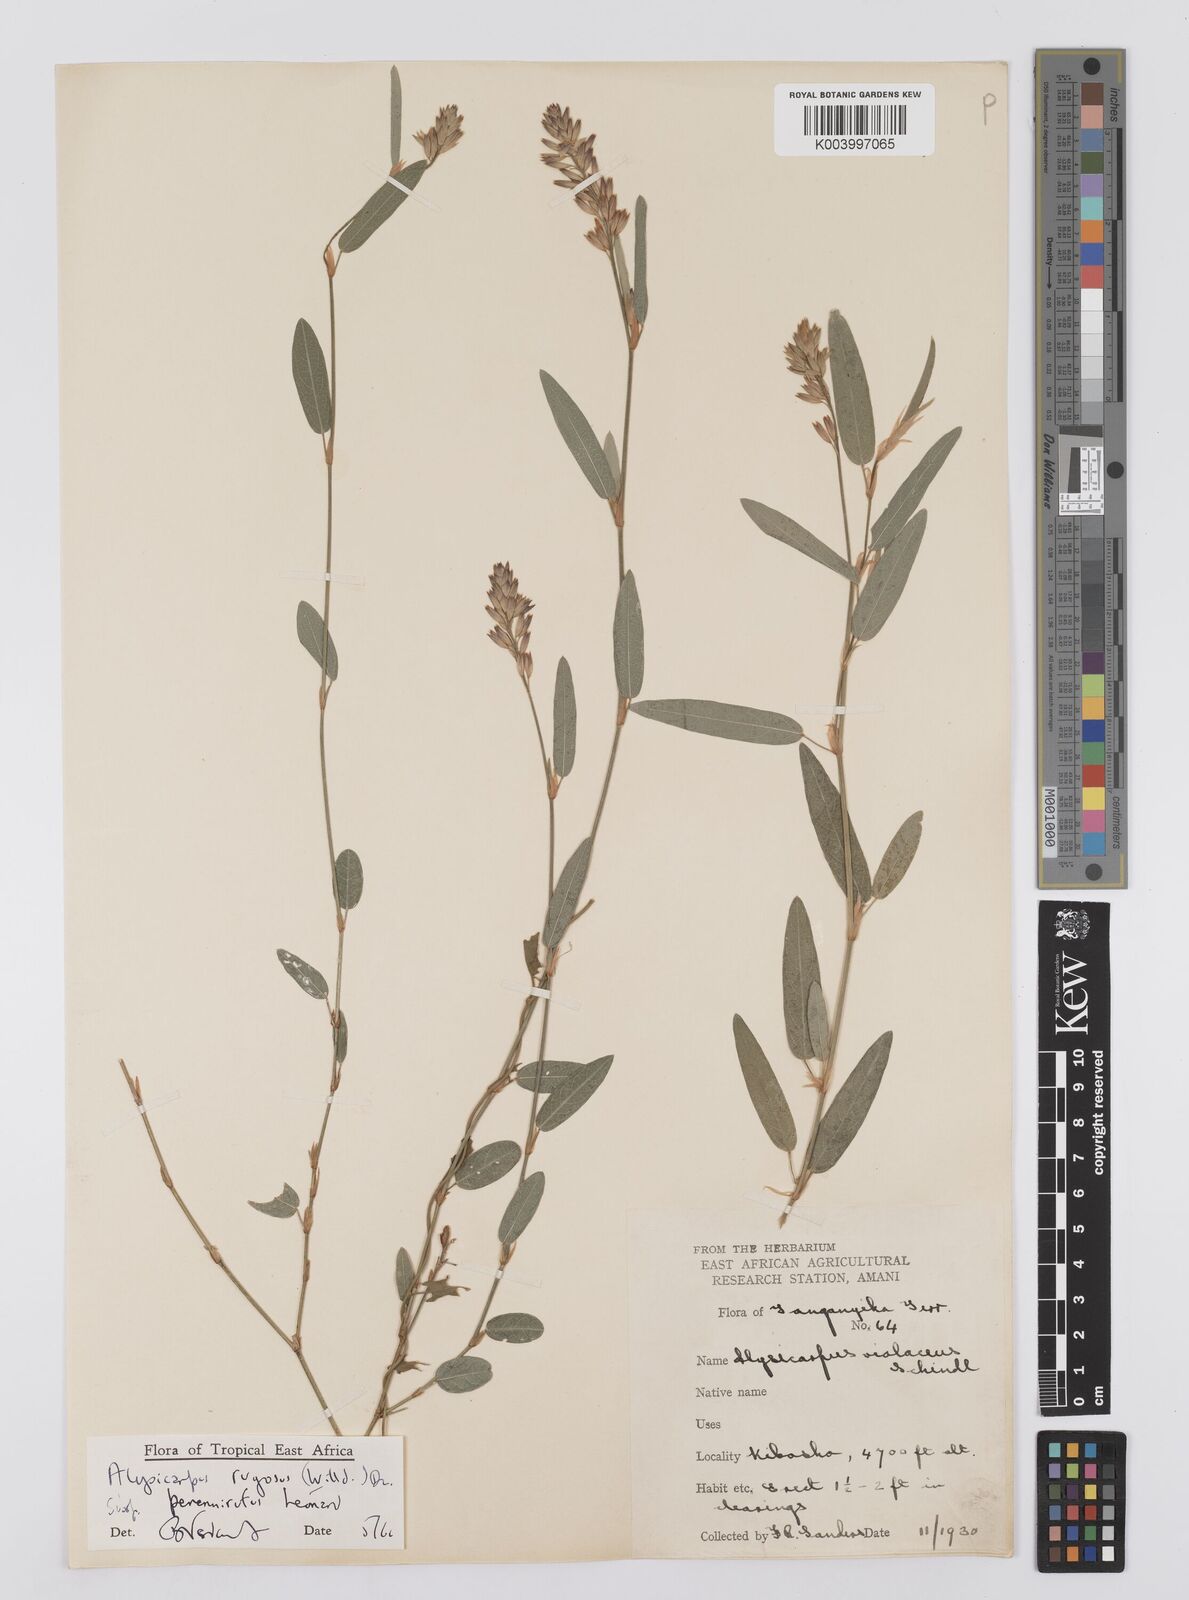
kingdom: Plantae
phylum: Tracheophyta
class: Magnoliopsida
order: Fabales
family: Fabaceae
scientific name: Fabaceae
